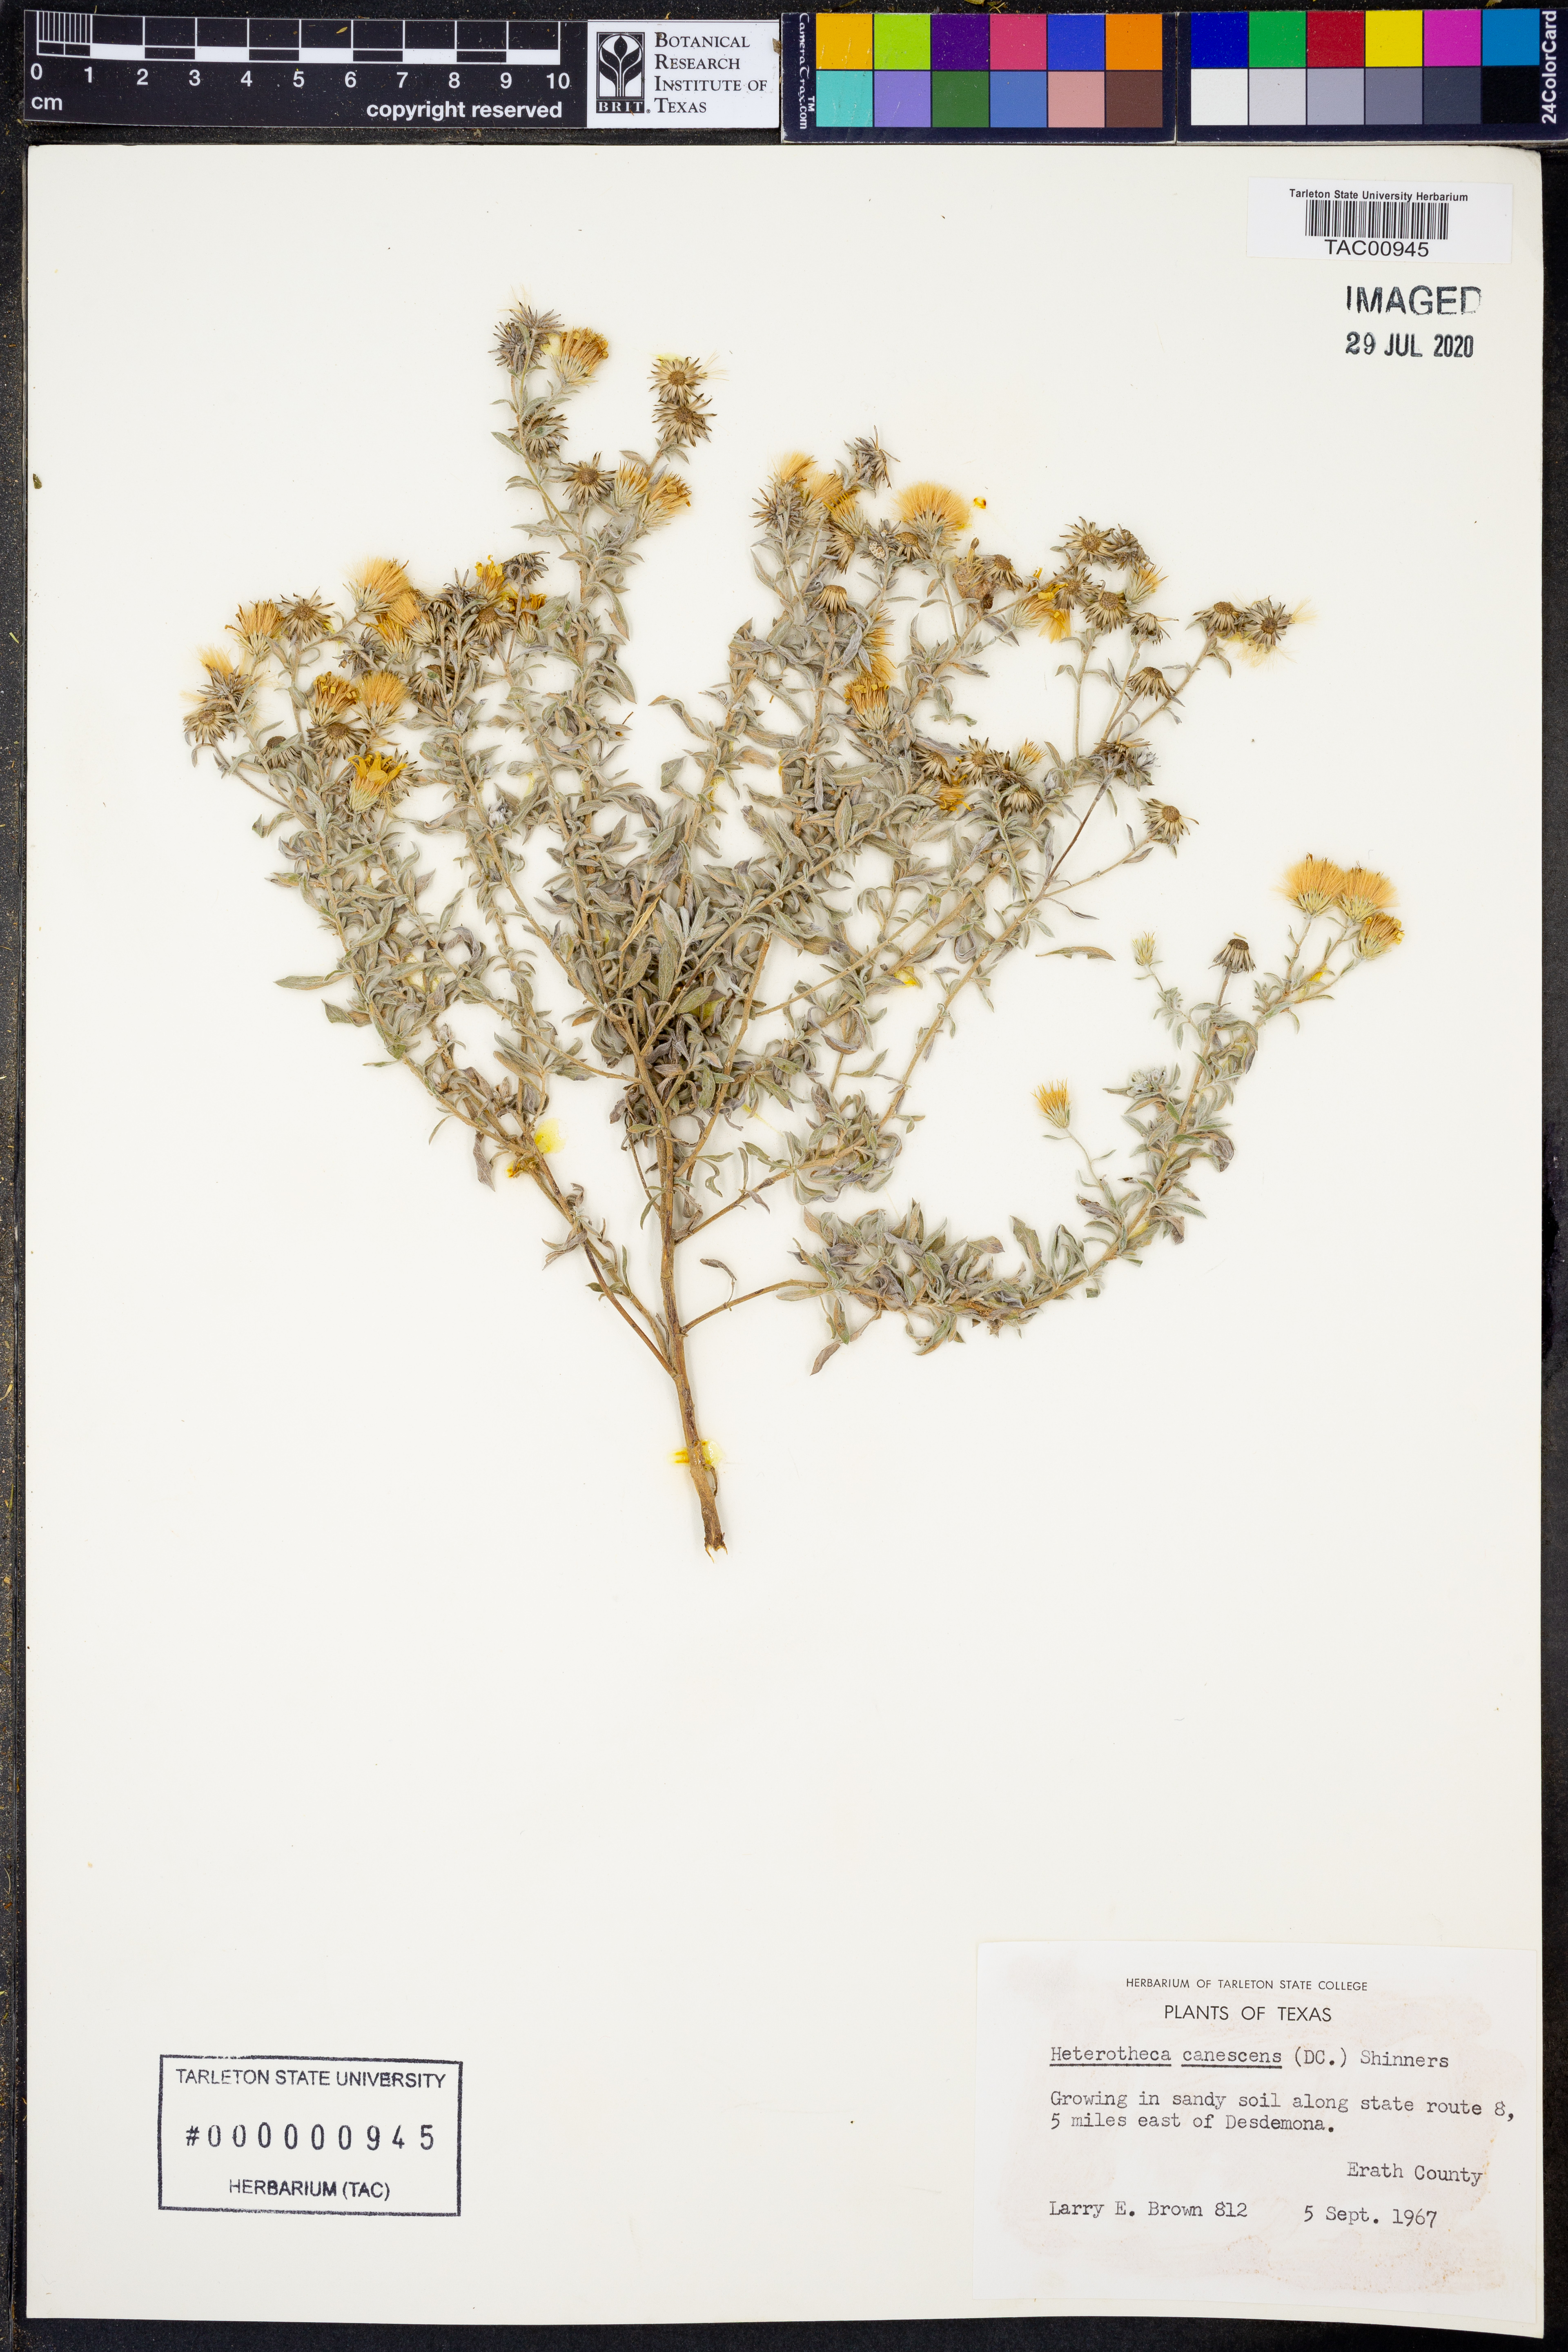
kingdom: Plantae
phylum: Tracheophyta
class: Magnoliopsida
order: Asterales
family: Asteraceae
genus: Heterotheca
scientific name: Heterotheca canescens
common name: Hoary golden-aster
